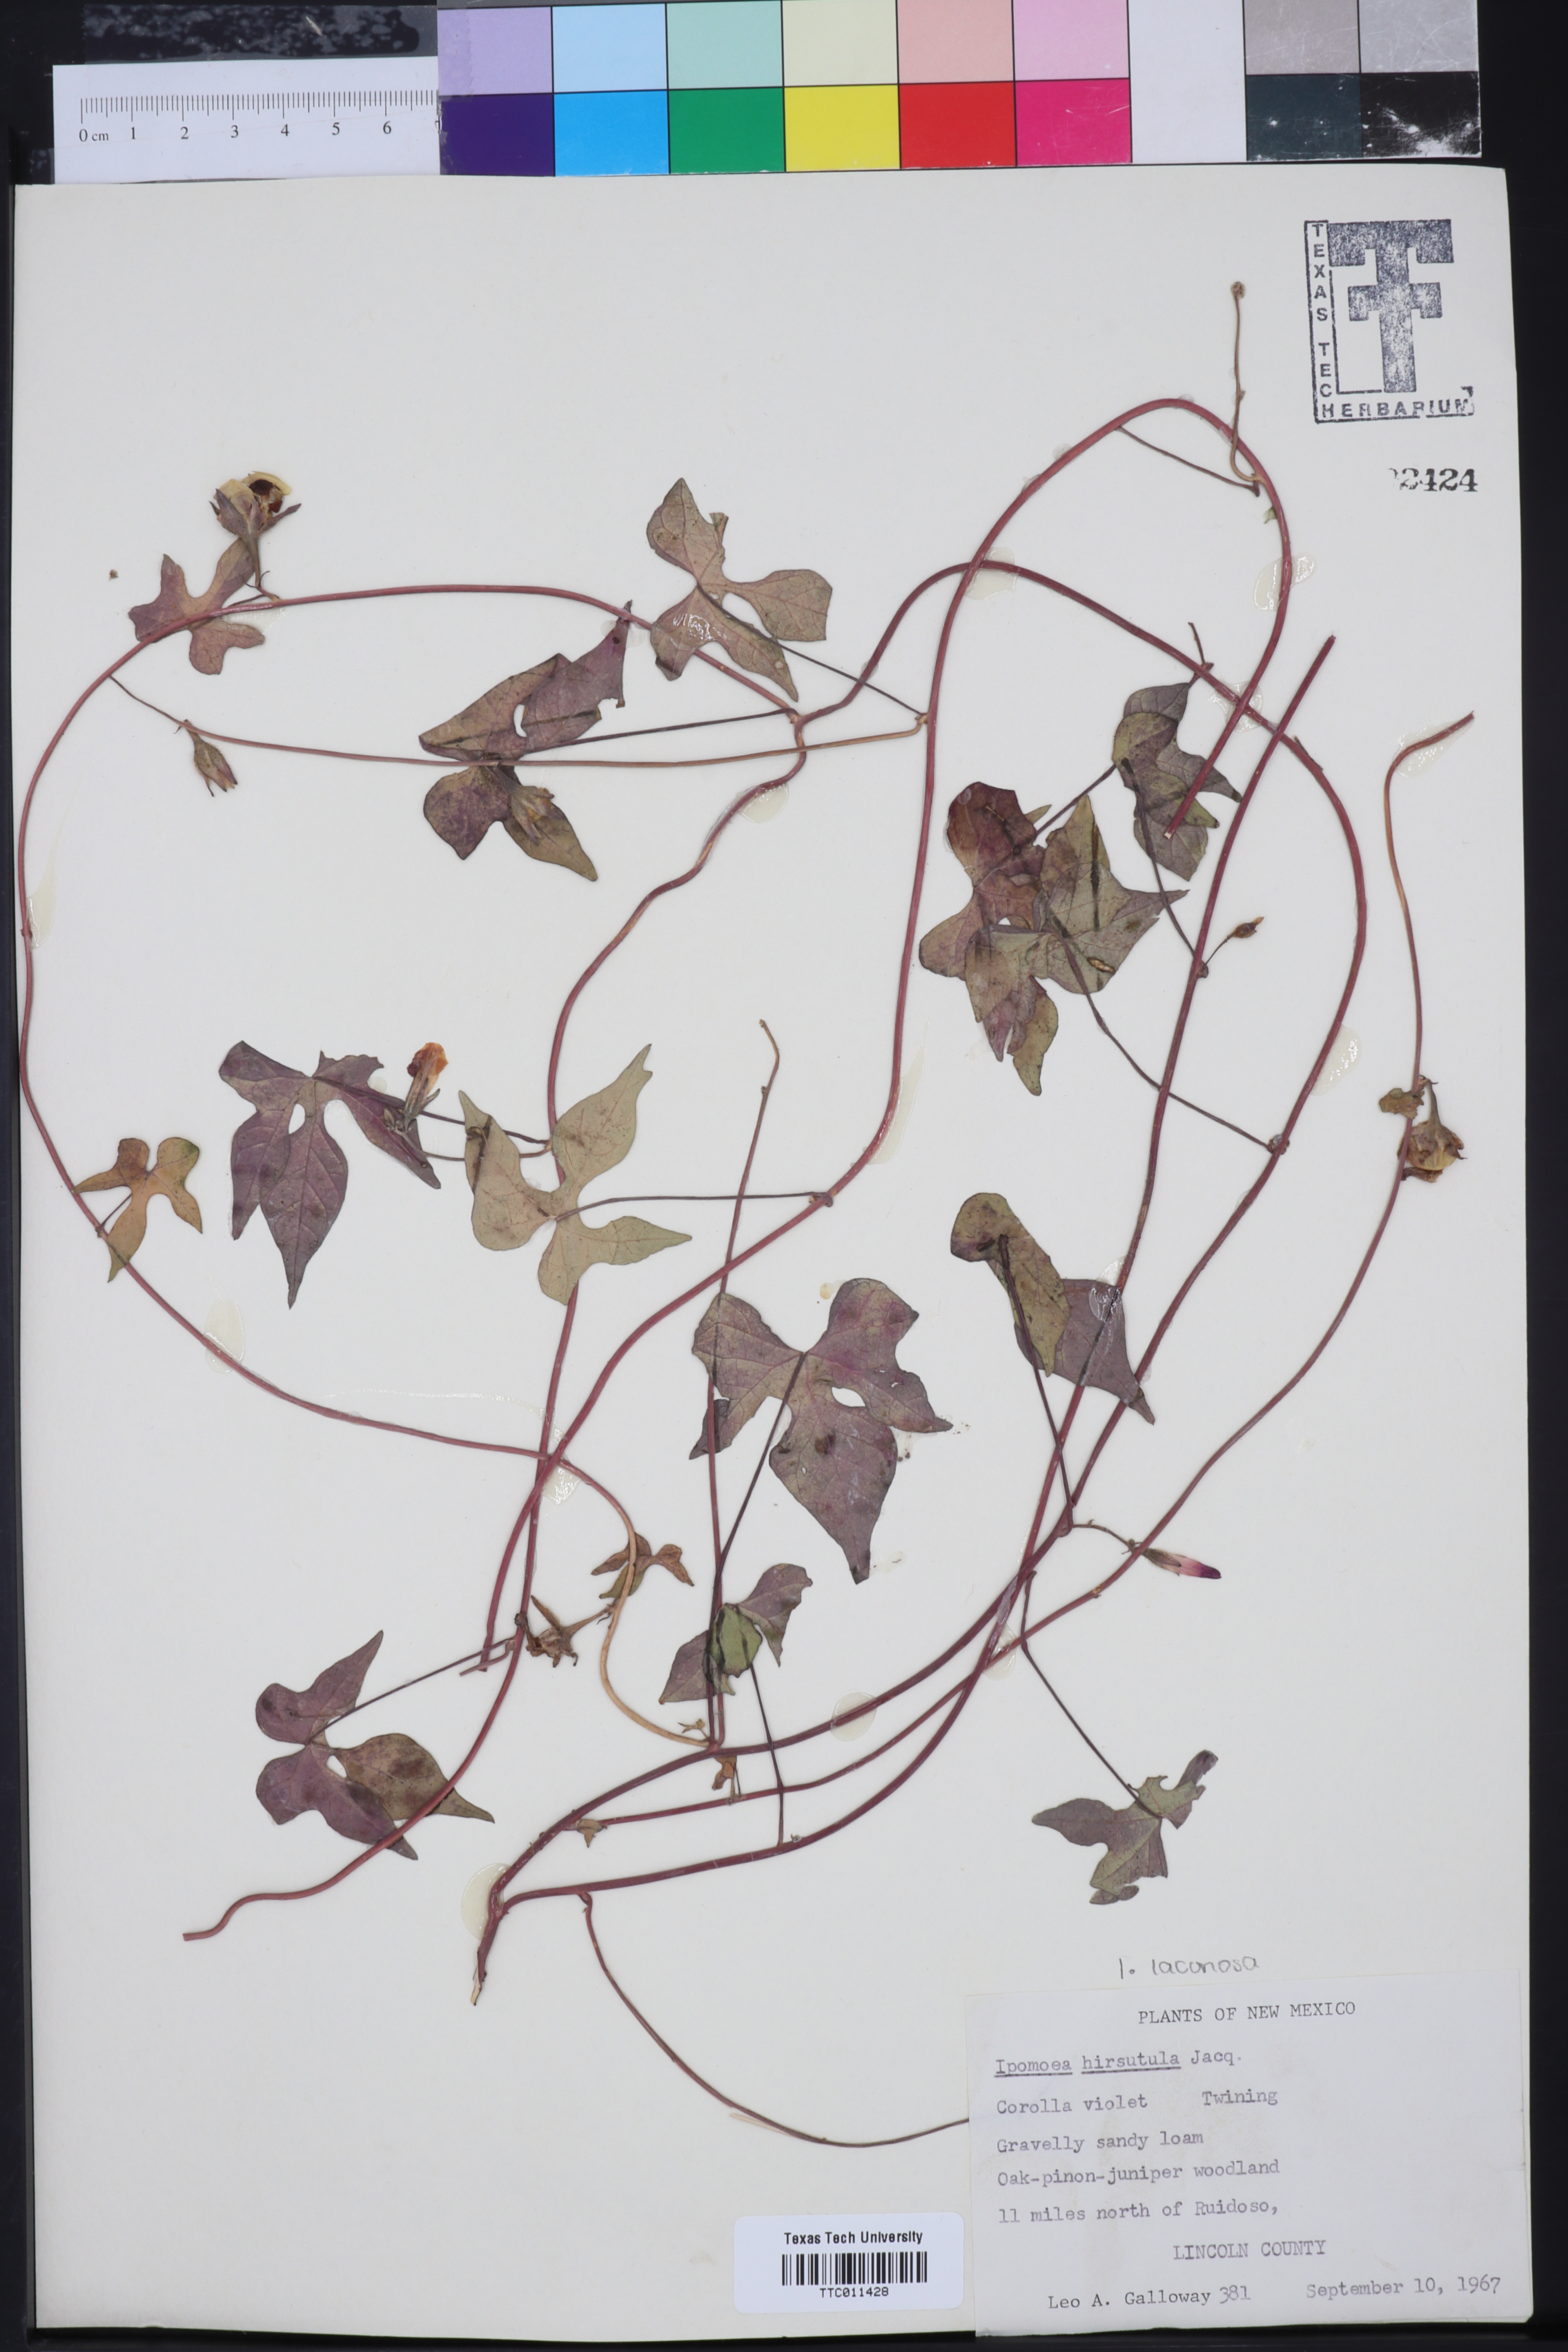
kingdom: Plantae
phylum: Tracheophyta
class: Magnoliopsida
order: Solanales
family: Convolvulaceae
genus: Ipomoea
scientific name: Ipomoea purpurea
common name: Common morning-glory
